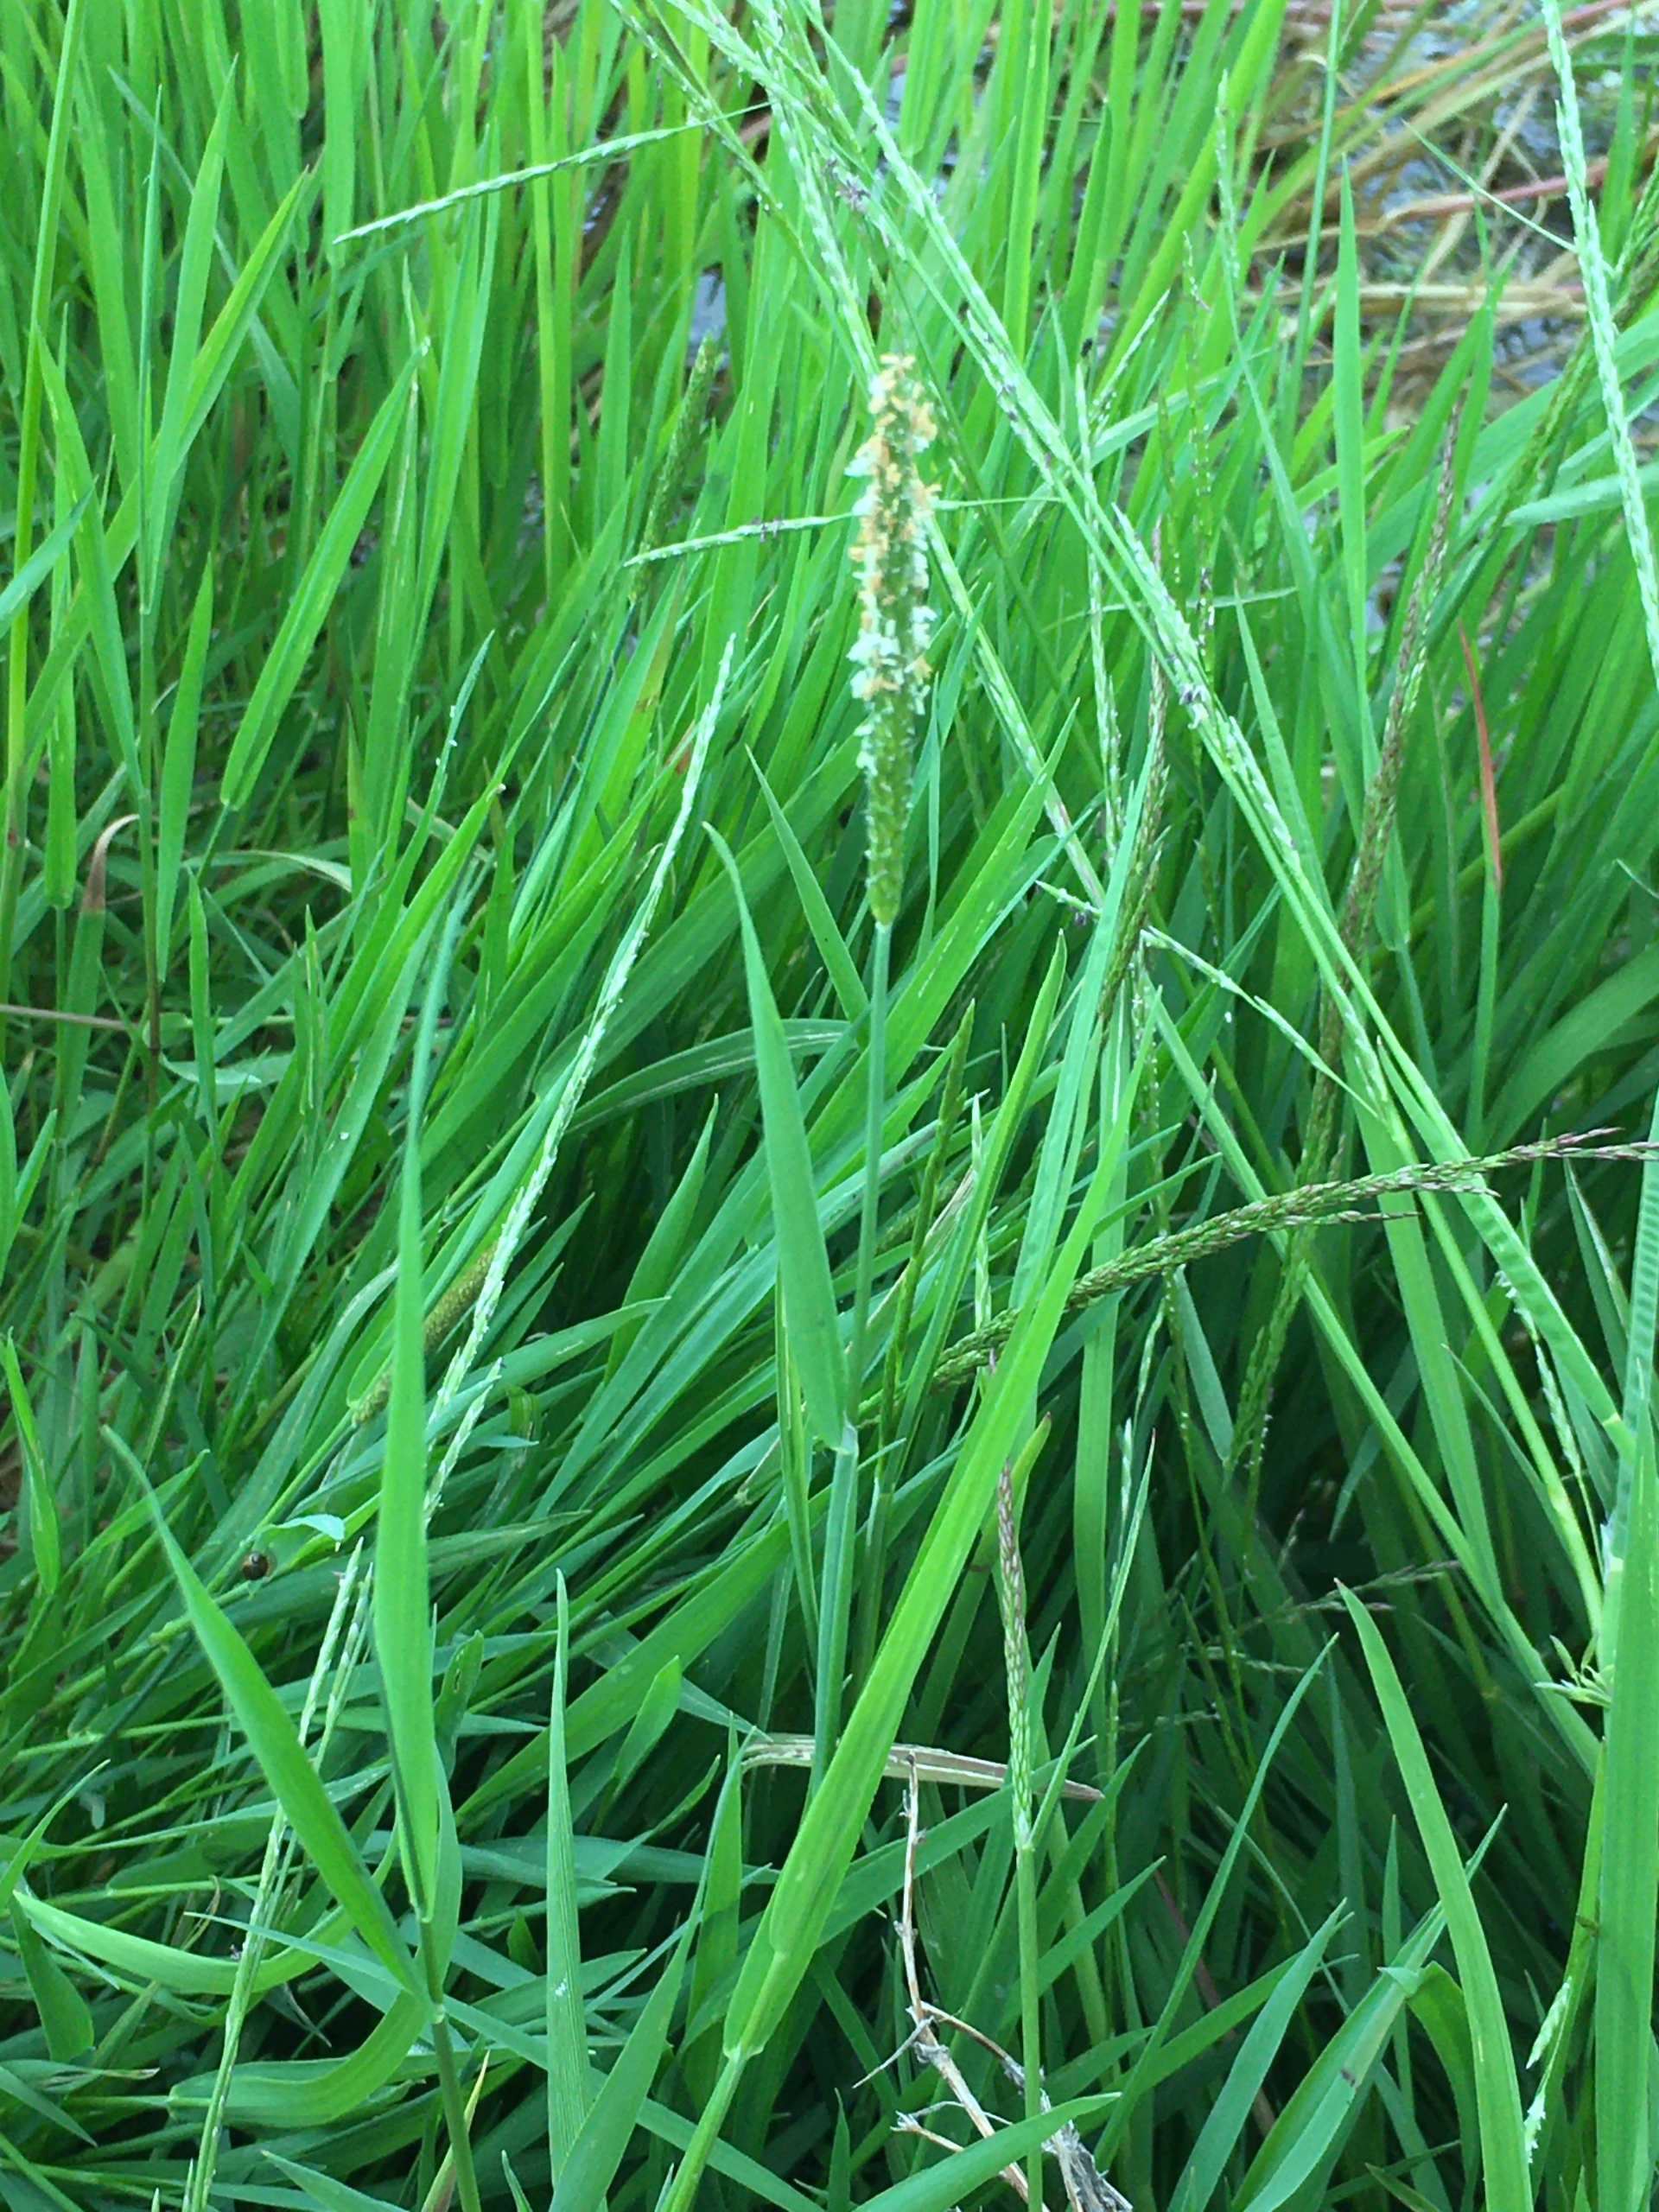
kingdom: Plantae
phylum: Tracheophyta
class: Liliopsida
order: Poales
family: Poaceae
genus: Alopecurus
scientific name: Alopecurus aequalis
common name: Gul rævehale
